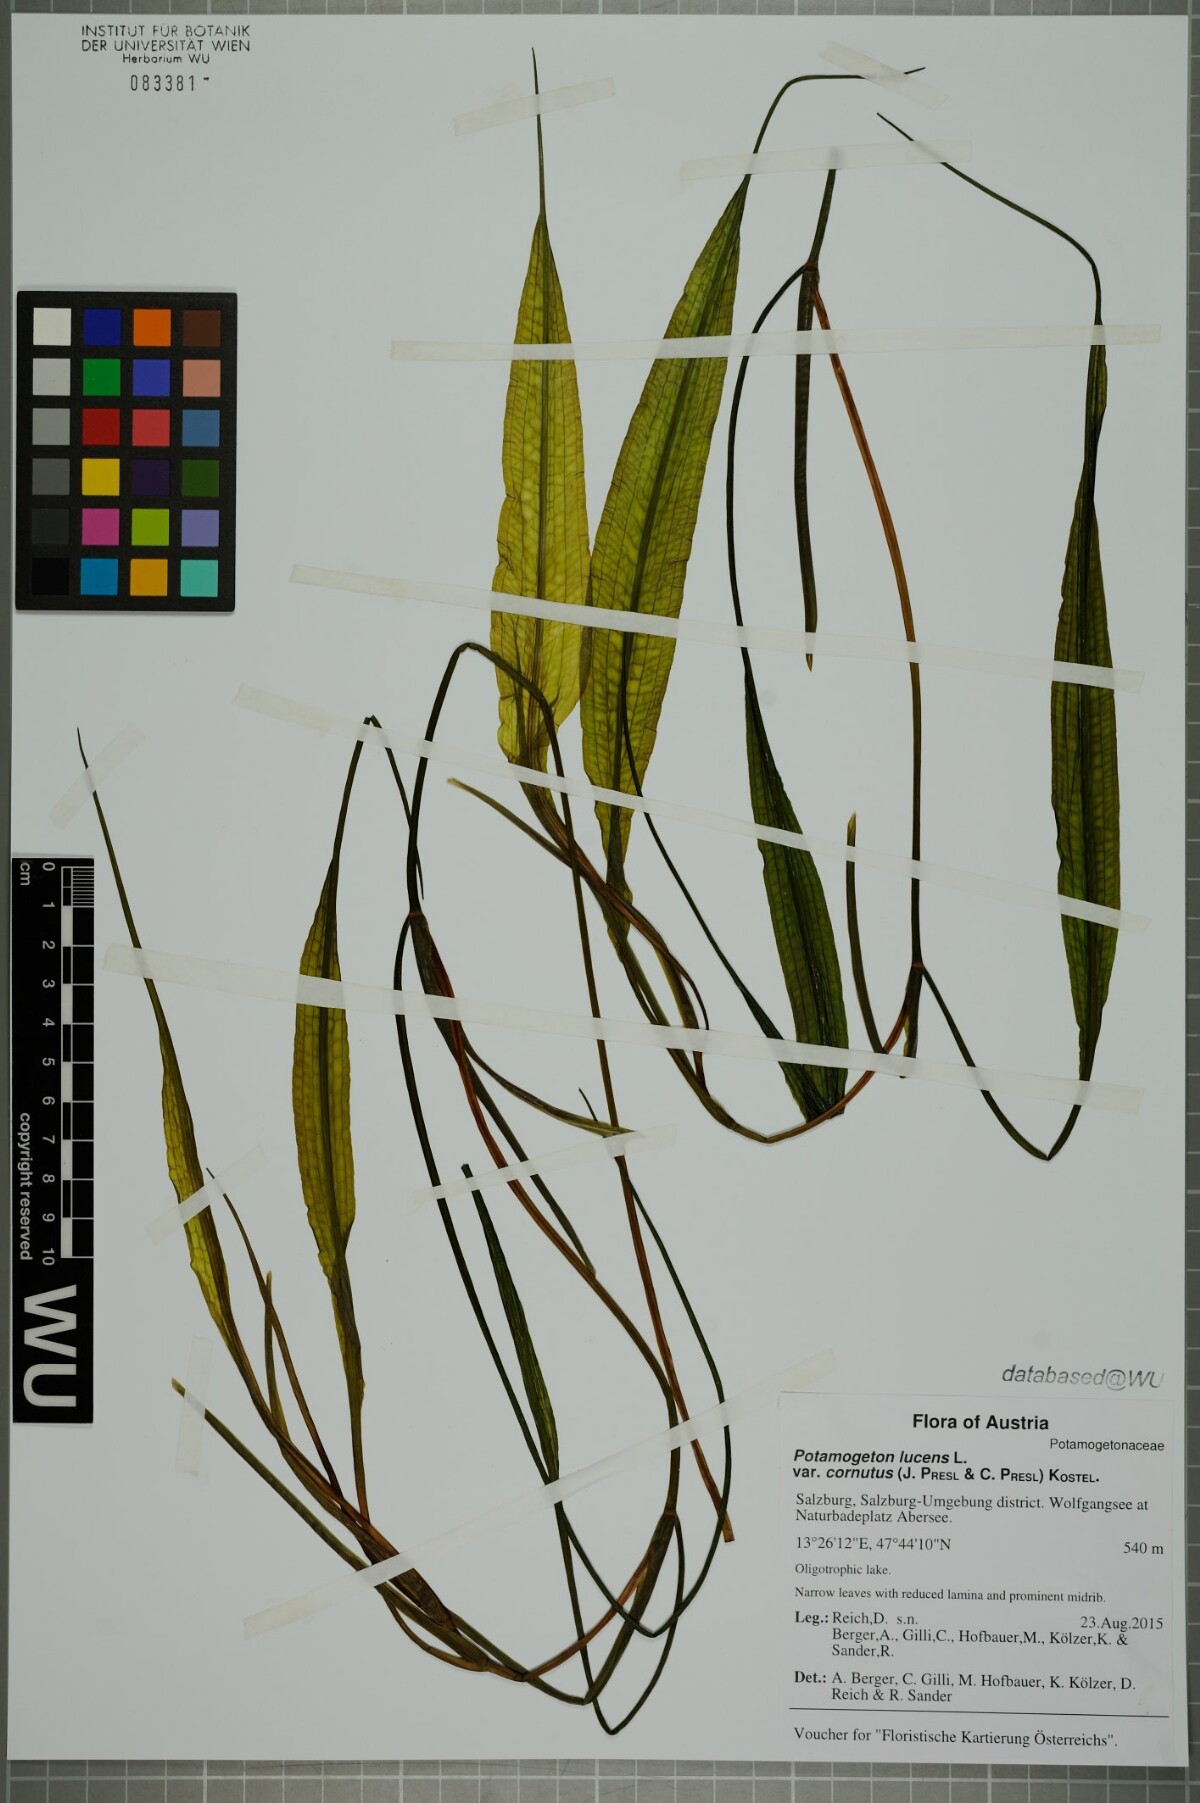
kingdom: Plantae
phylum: Tracheophyta
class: Liliopsida
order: Alismatales
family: Potamogetonaceae
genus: Potamogeton
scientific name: Potamogeton lucens
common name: Shining pondweed
